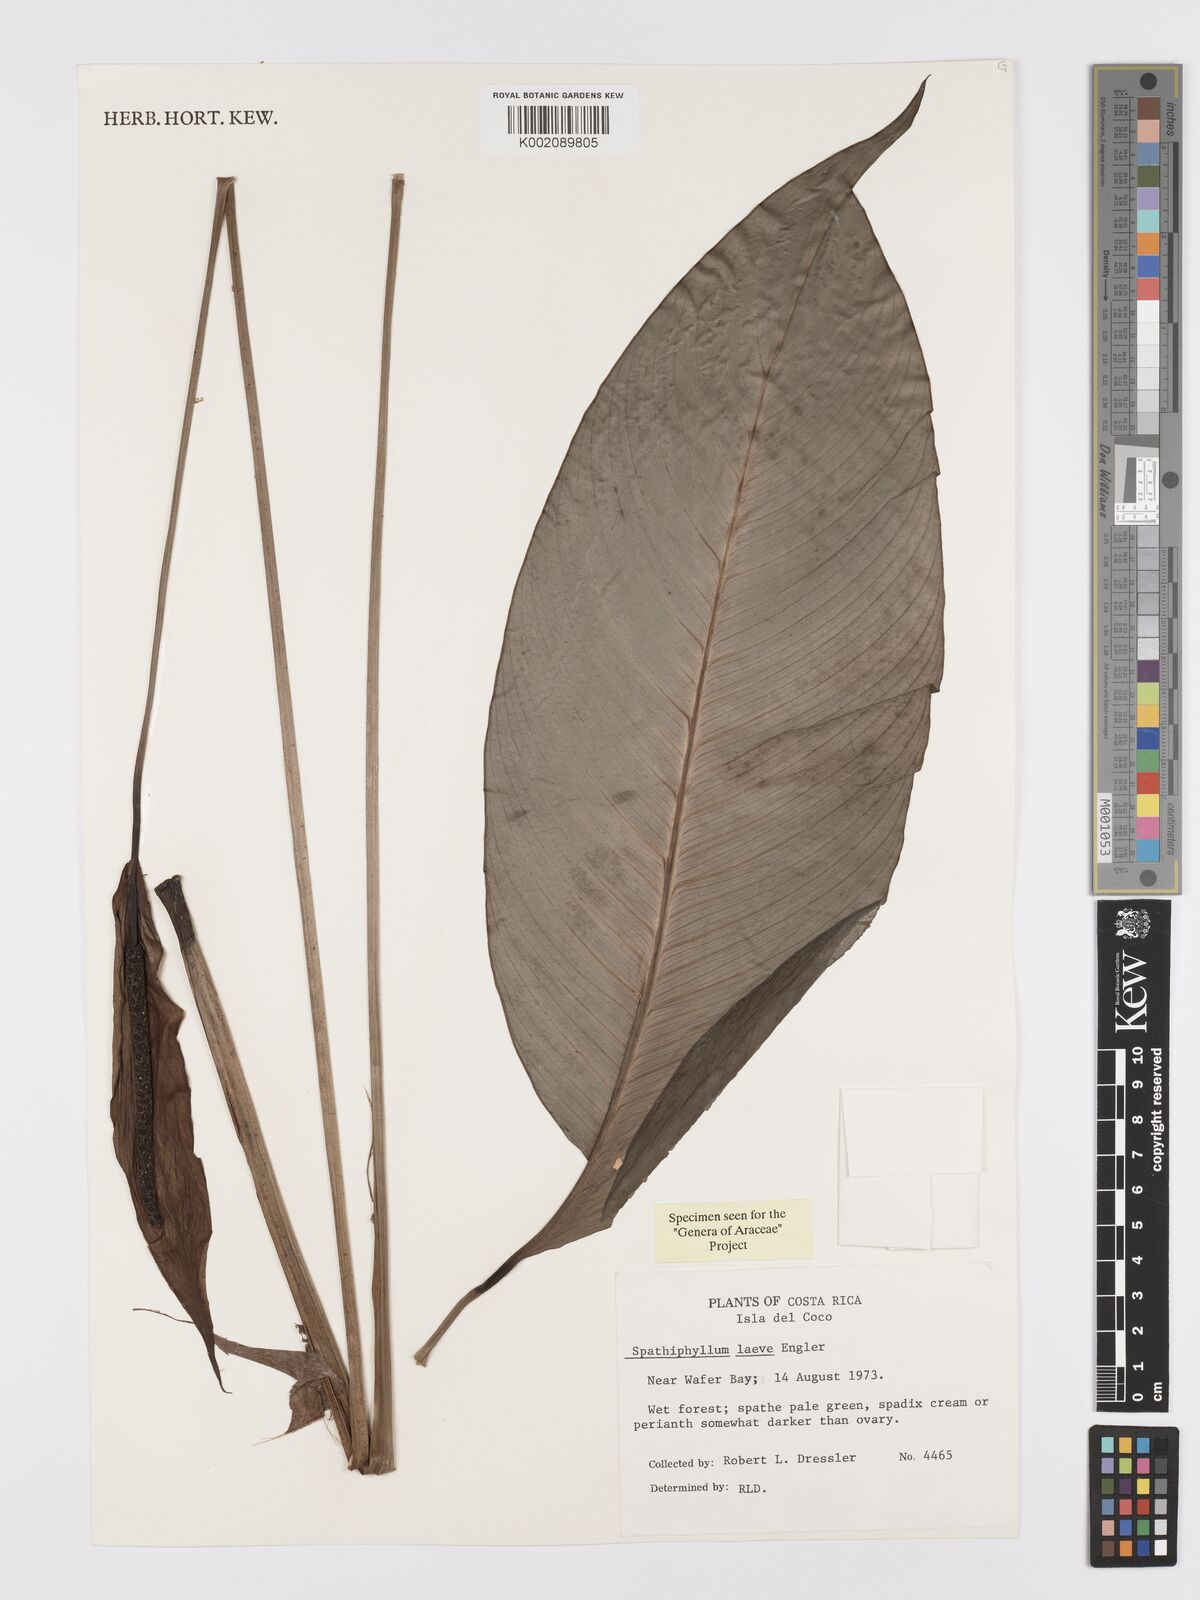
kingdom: Plantae
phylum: Tracheophyta
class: Liliopsida
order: Alismatales
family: Araceae
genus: Spathiphyllum
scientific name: Spathiphyllum laeve
